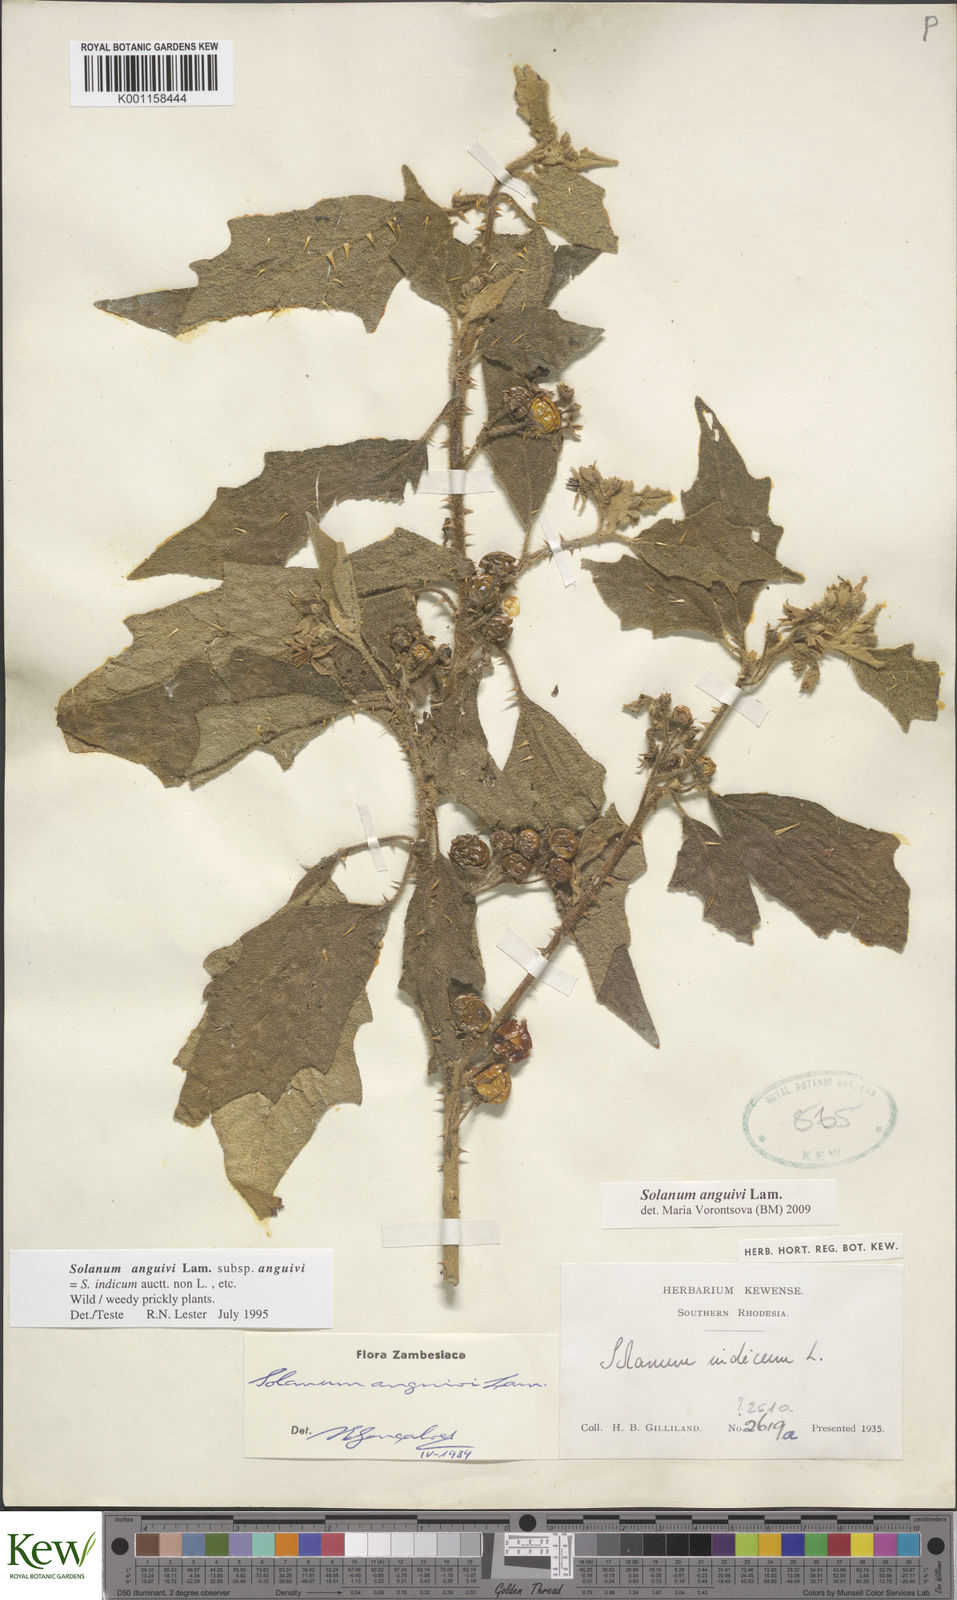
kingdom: Plantae
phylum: Tracheophyta
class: Magnoliopsida
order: Solanales
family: Solanaceae
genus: Solanum
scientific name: Solanum anguivi
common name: Forest bitterberry
